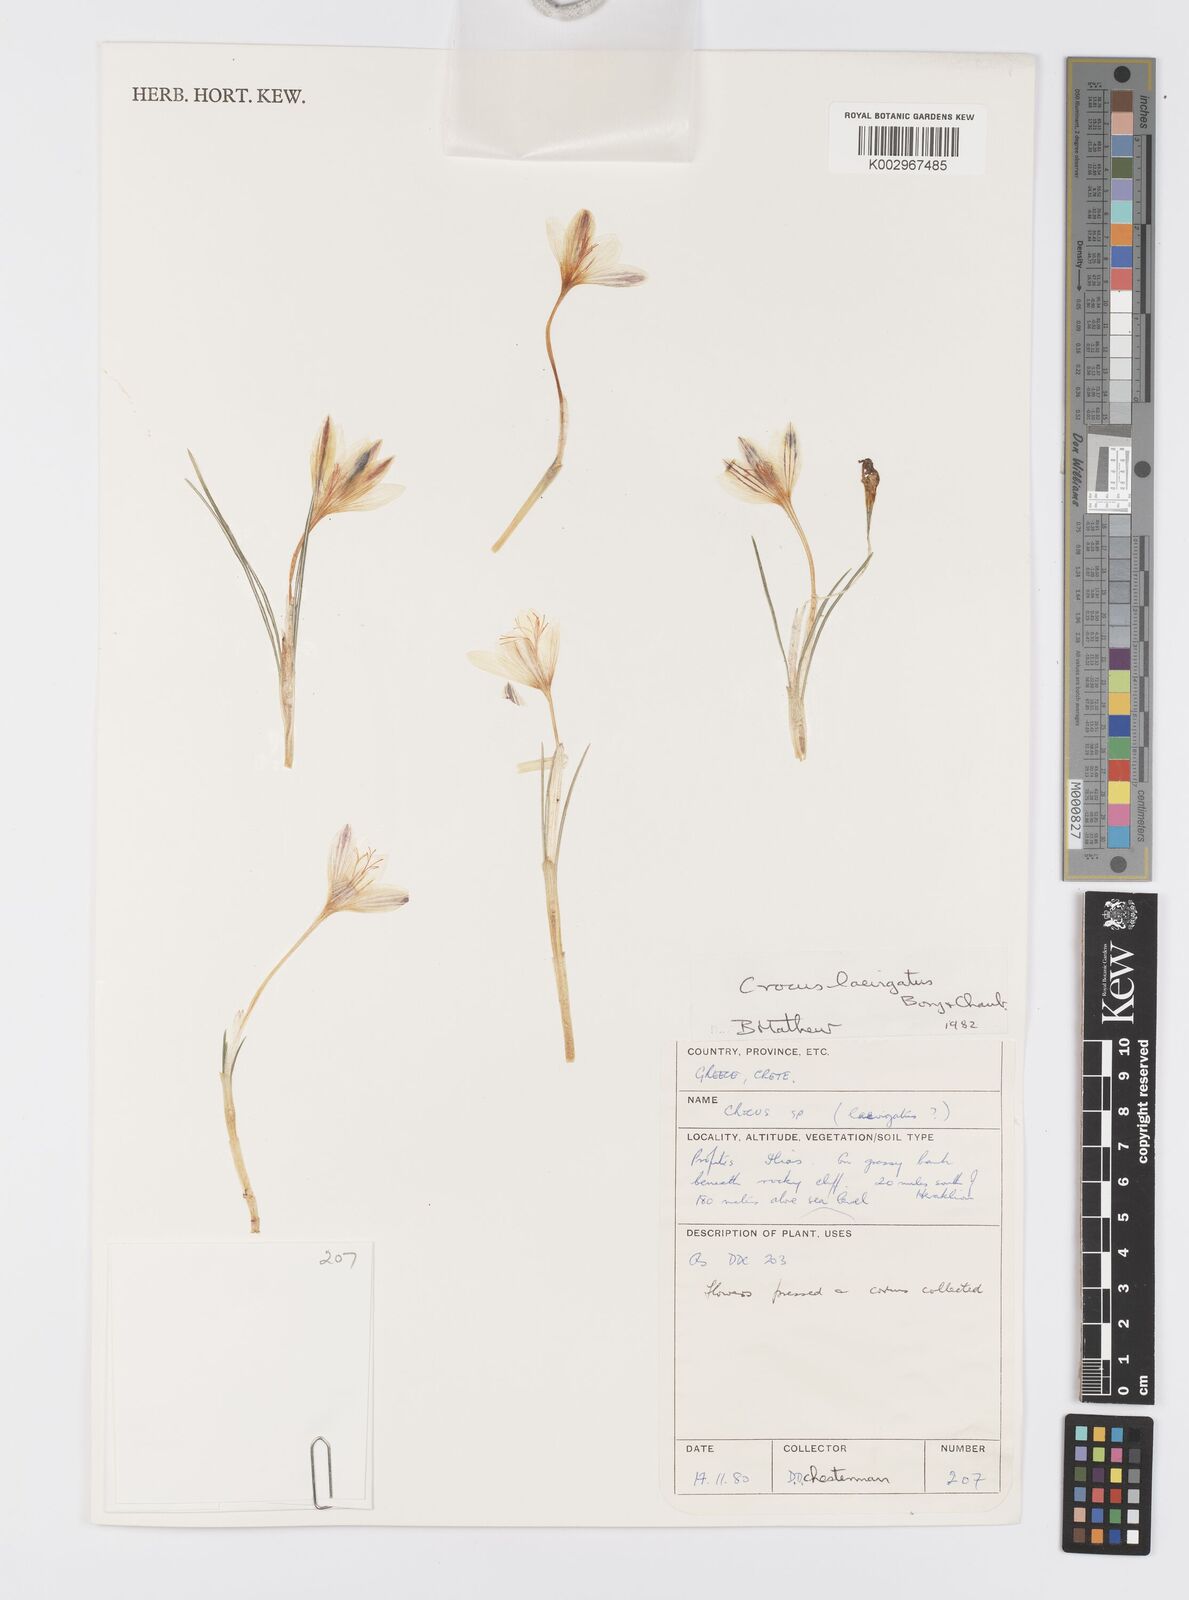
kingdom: Plantae
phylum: Tracheophyta
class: Liliopsida
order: Asparagales
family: Iridaceae
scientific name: Iridaceae
